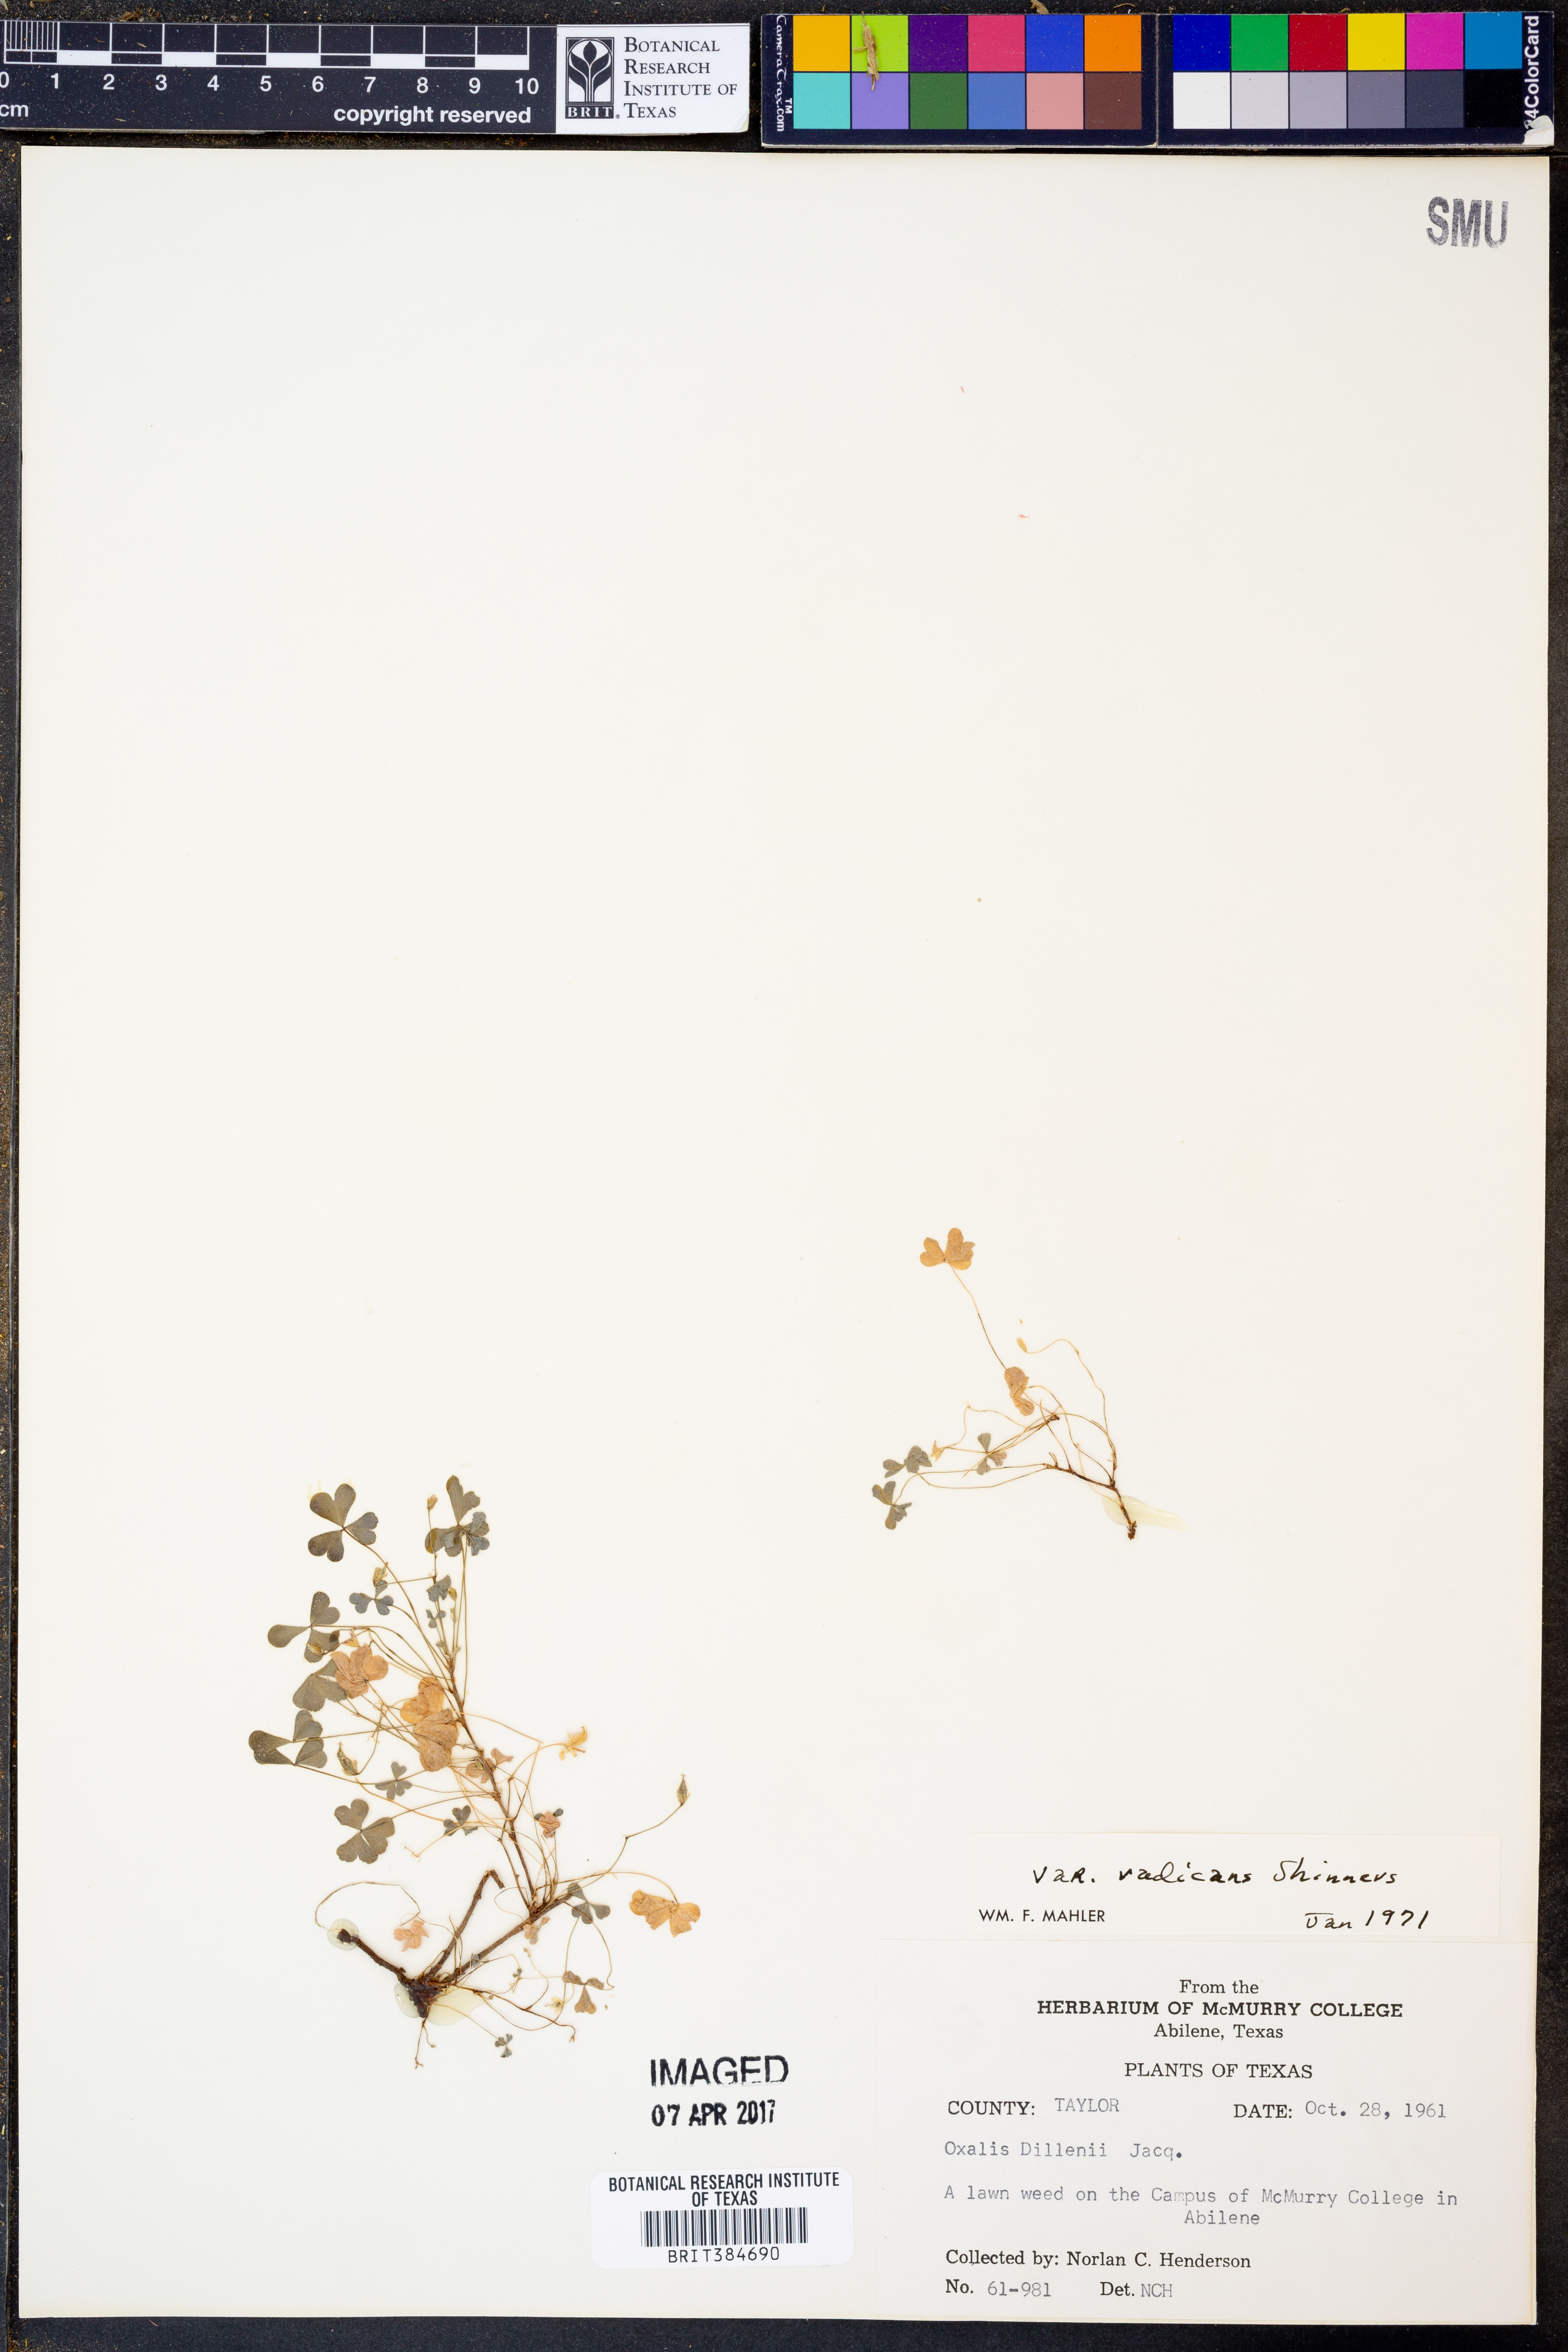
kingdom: Plantae
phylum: Tracheophyta
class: Magnoliopsida
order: Oxalidales
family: Oxalidaceae
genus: Oxalis
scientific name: Oxalis dillenii
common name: Sussex yellow-sorrel
